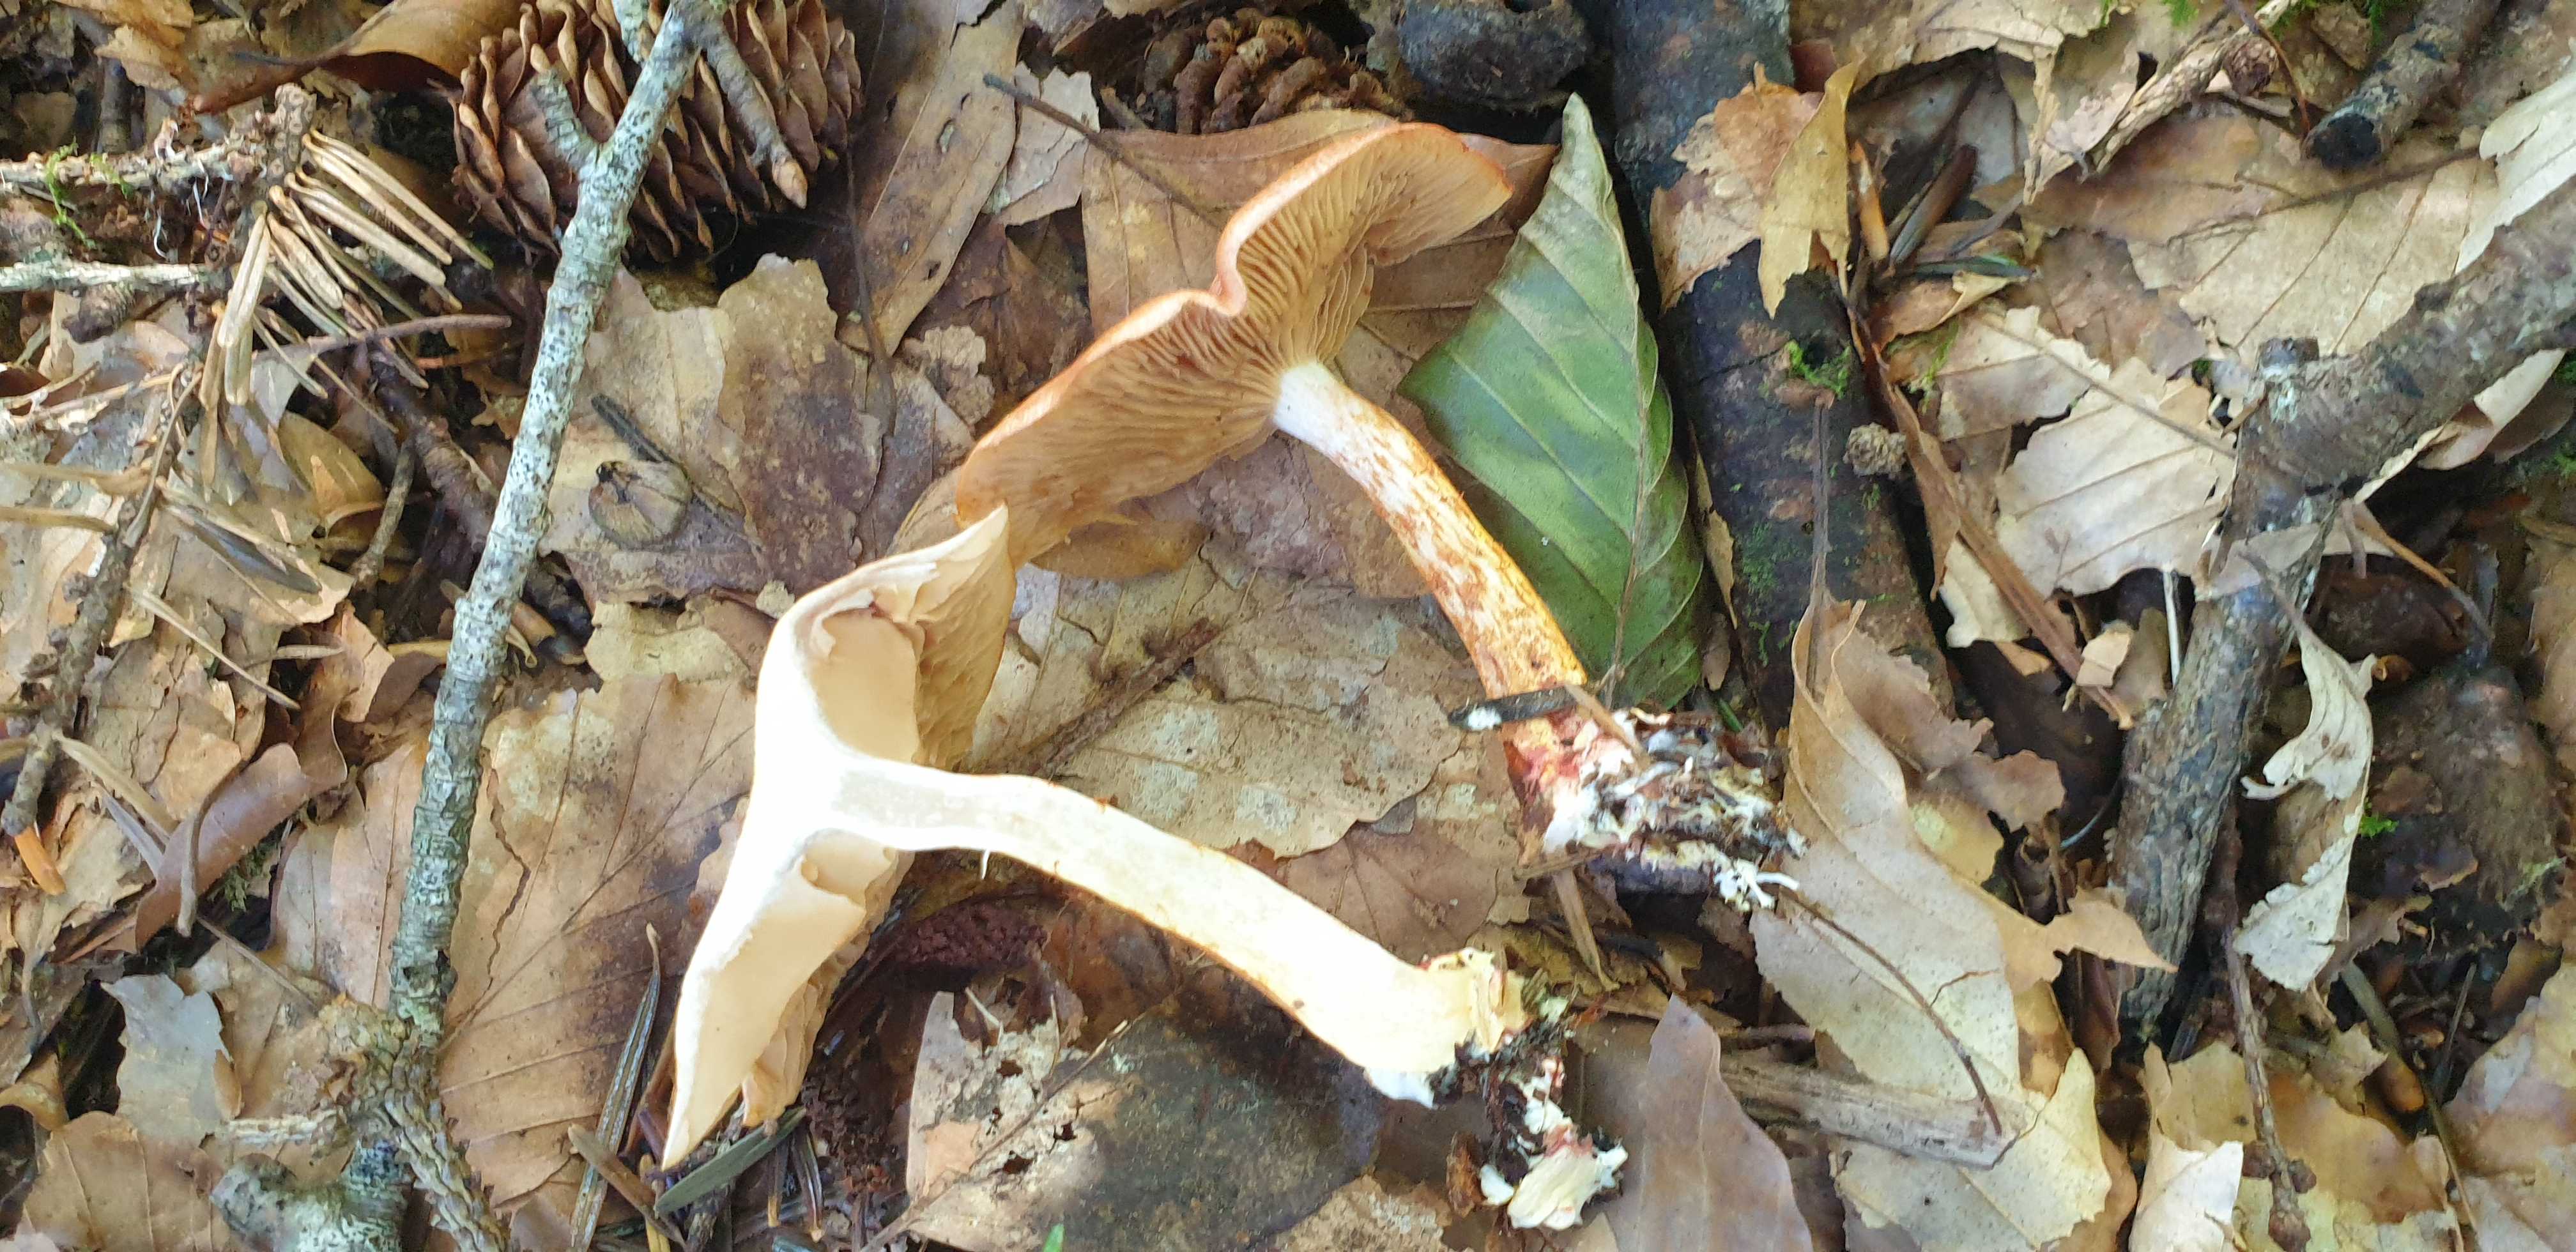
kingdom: Fungi
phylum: Basidiomycota
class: Agaricomycetes
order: Agaricales
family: Cortinariaceae
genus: Cortinarius
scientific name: Cortinarius bolaris
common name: cinnoberskællet slørhat
